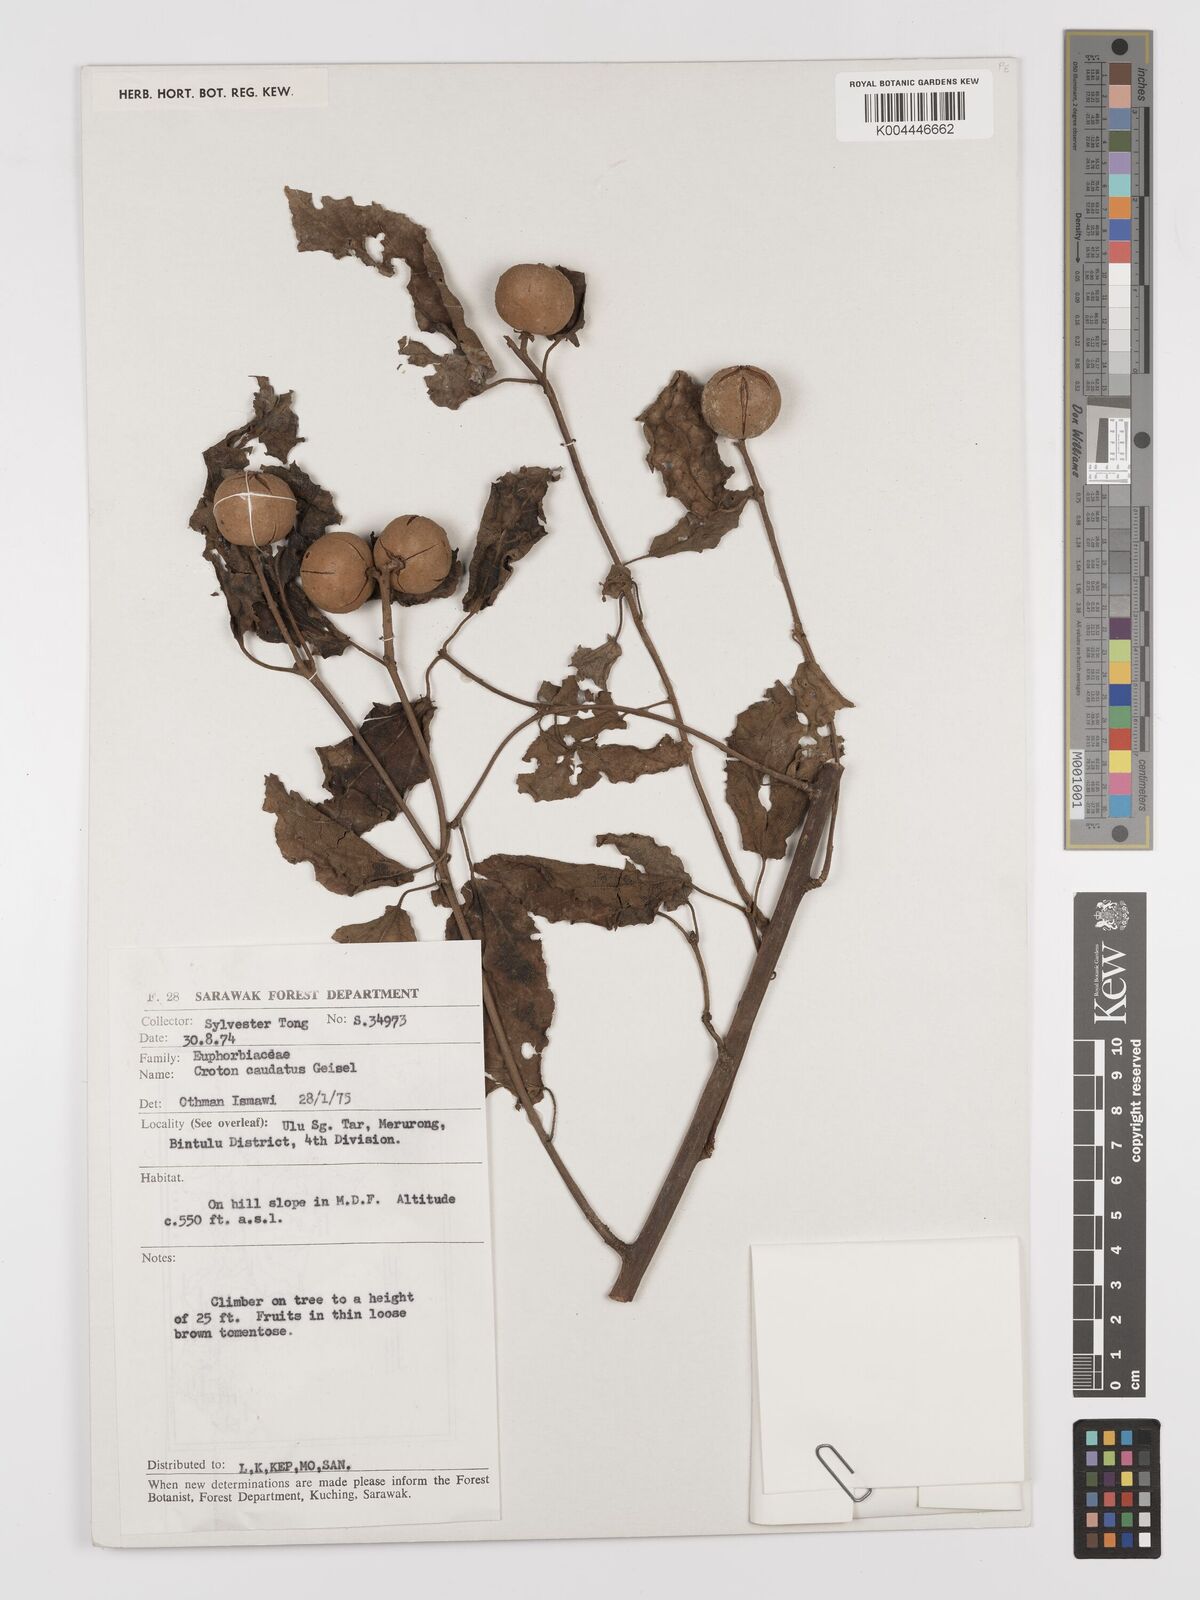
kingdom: Plantae
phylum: Tracheophyta
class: Magnoliopsida
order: Malpighiales
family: Euphorbiaceae
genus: Croton
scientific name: Croton caudatus
